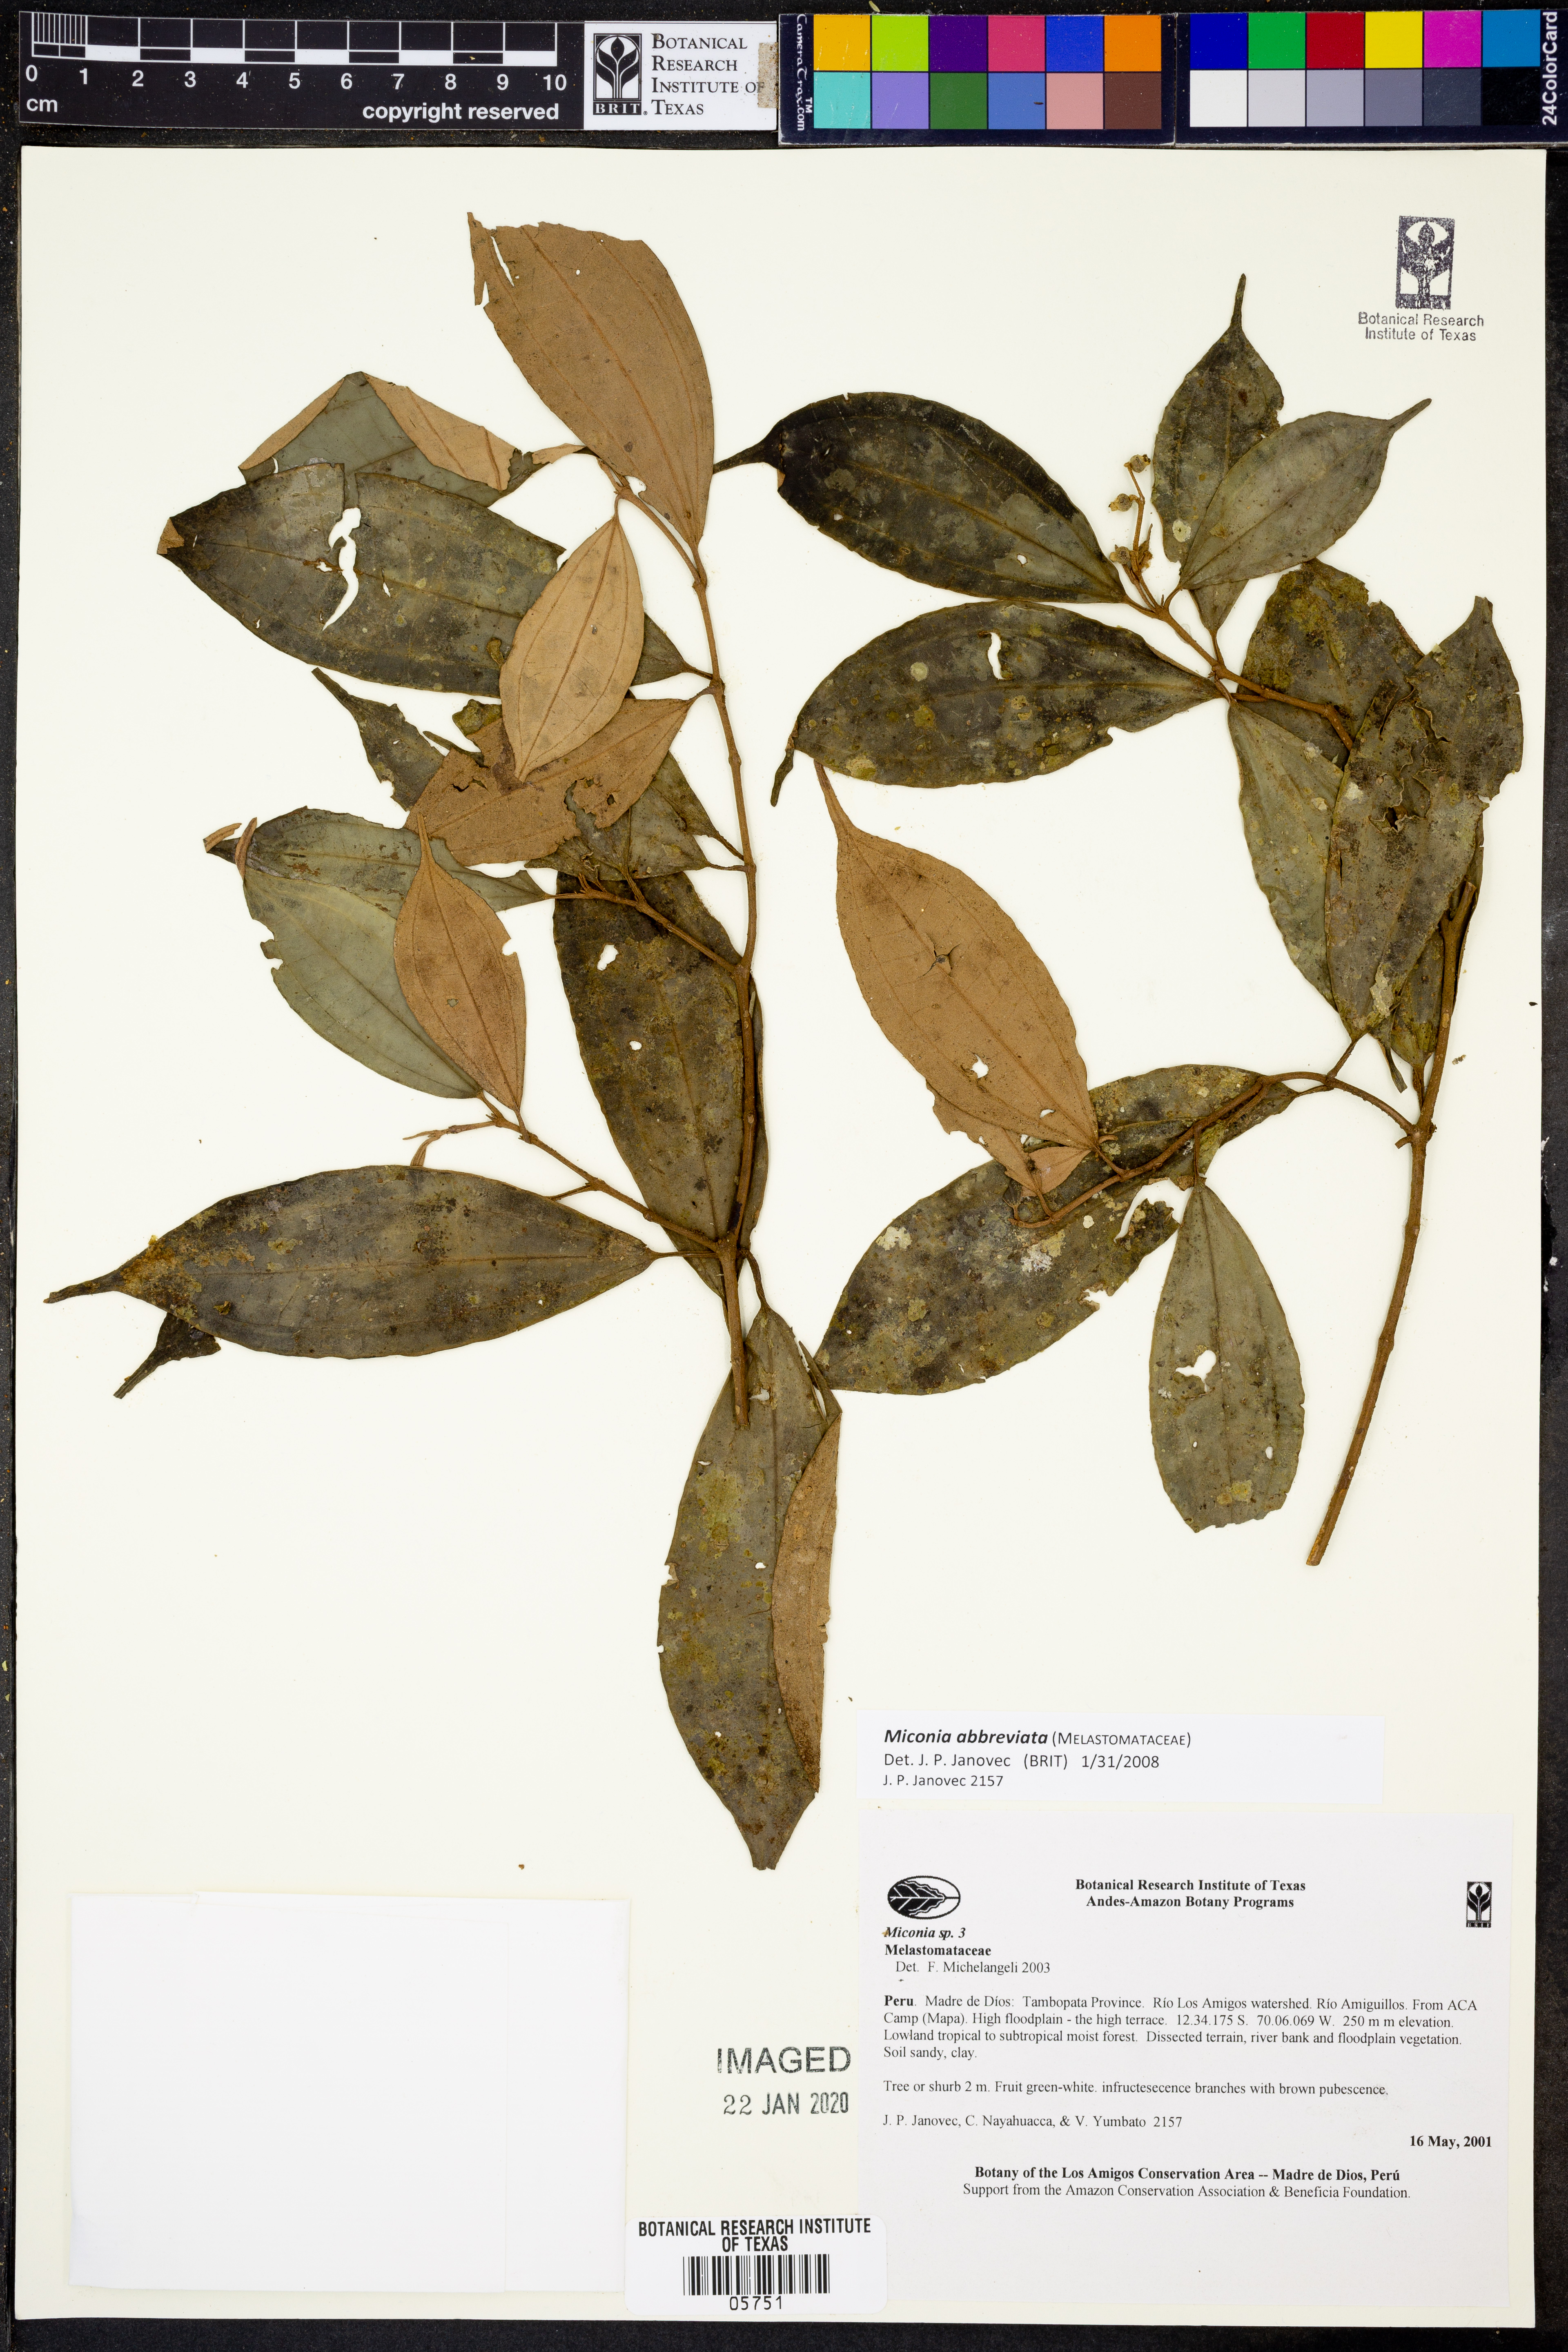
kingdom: Plantae
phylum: Tracheophyta
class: Magnoliopsida
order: Myrtales
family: Melastomataceae
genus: Miconia
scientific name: Miconia abbreviata
